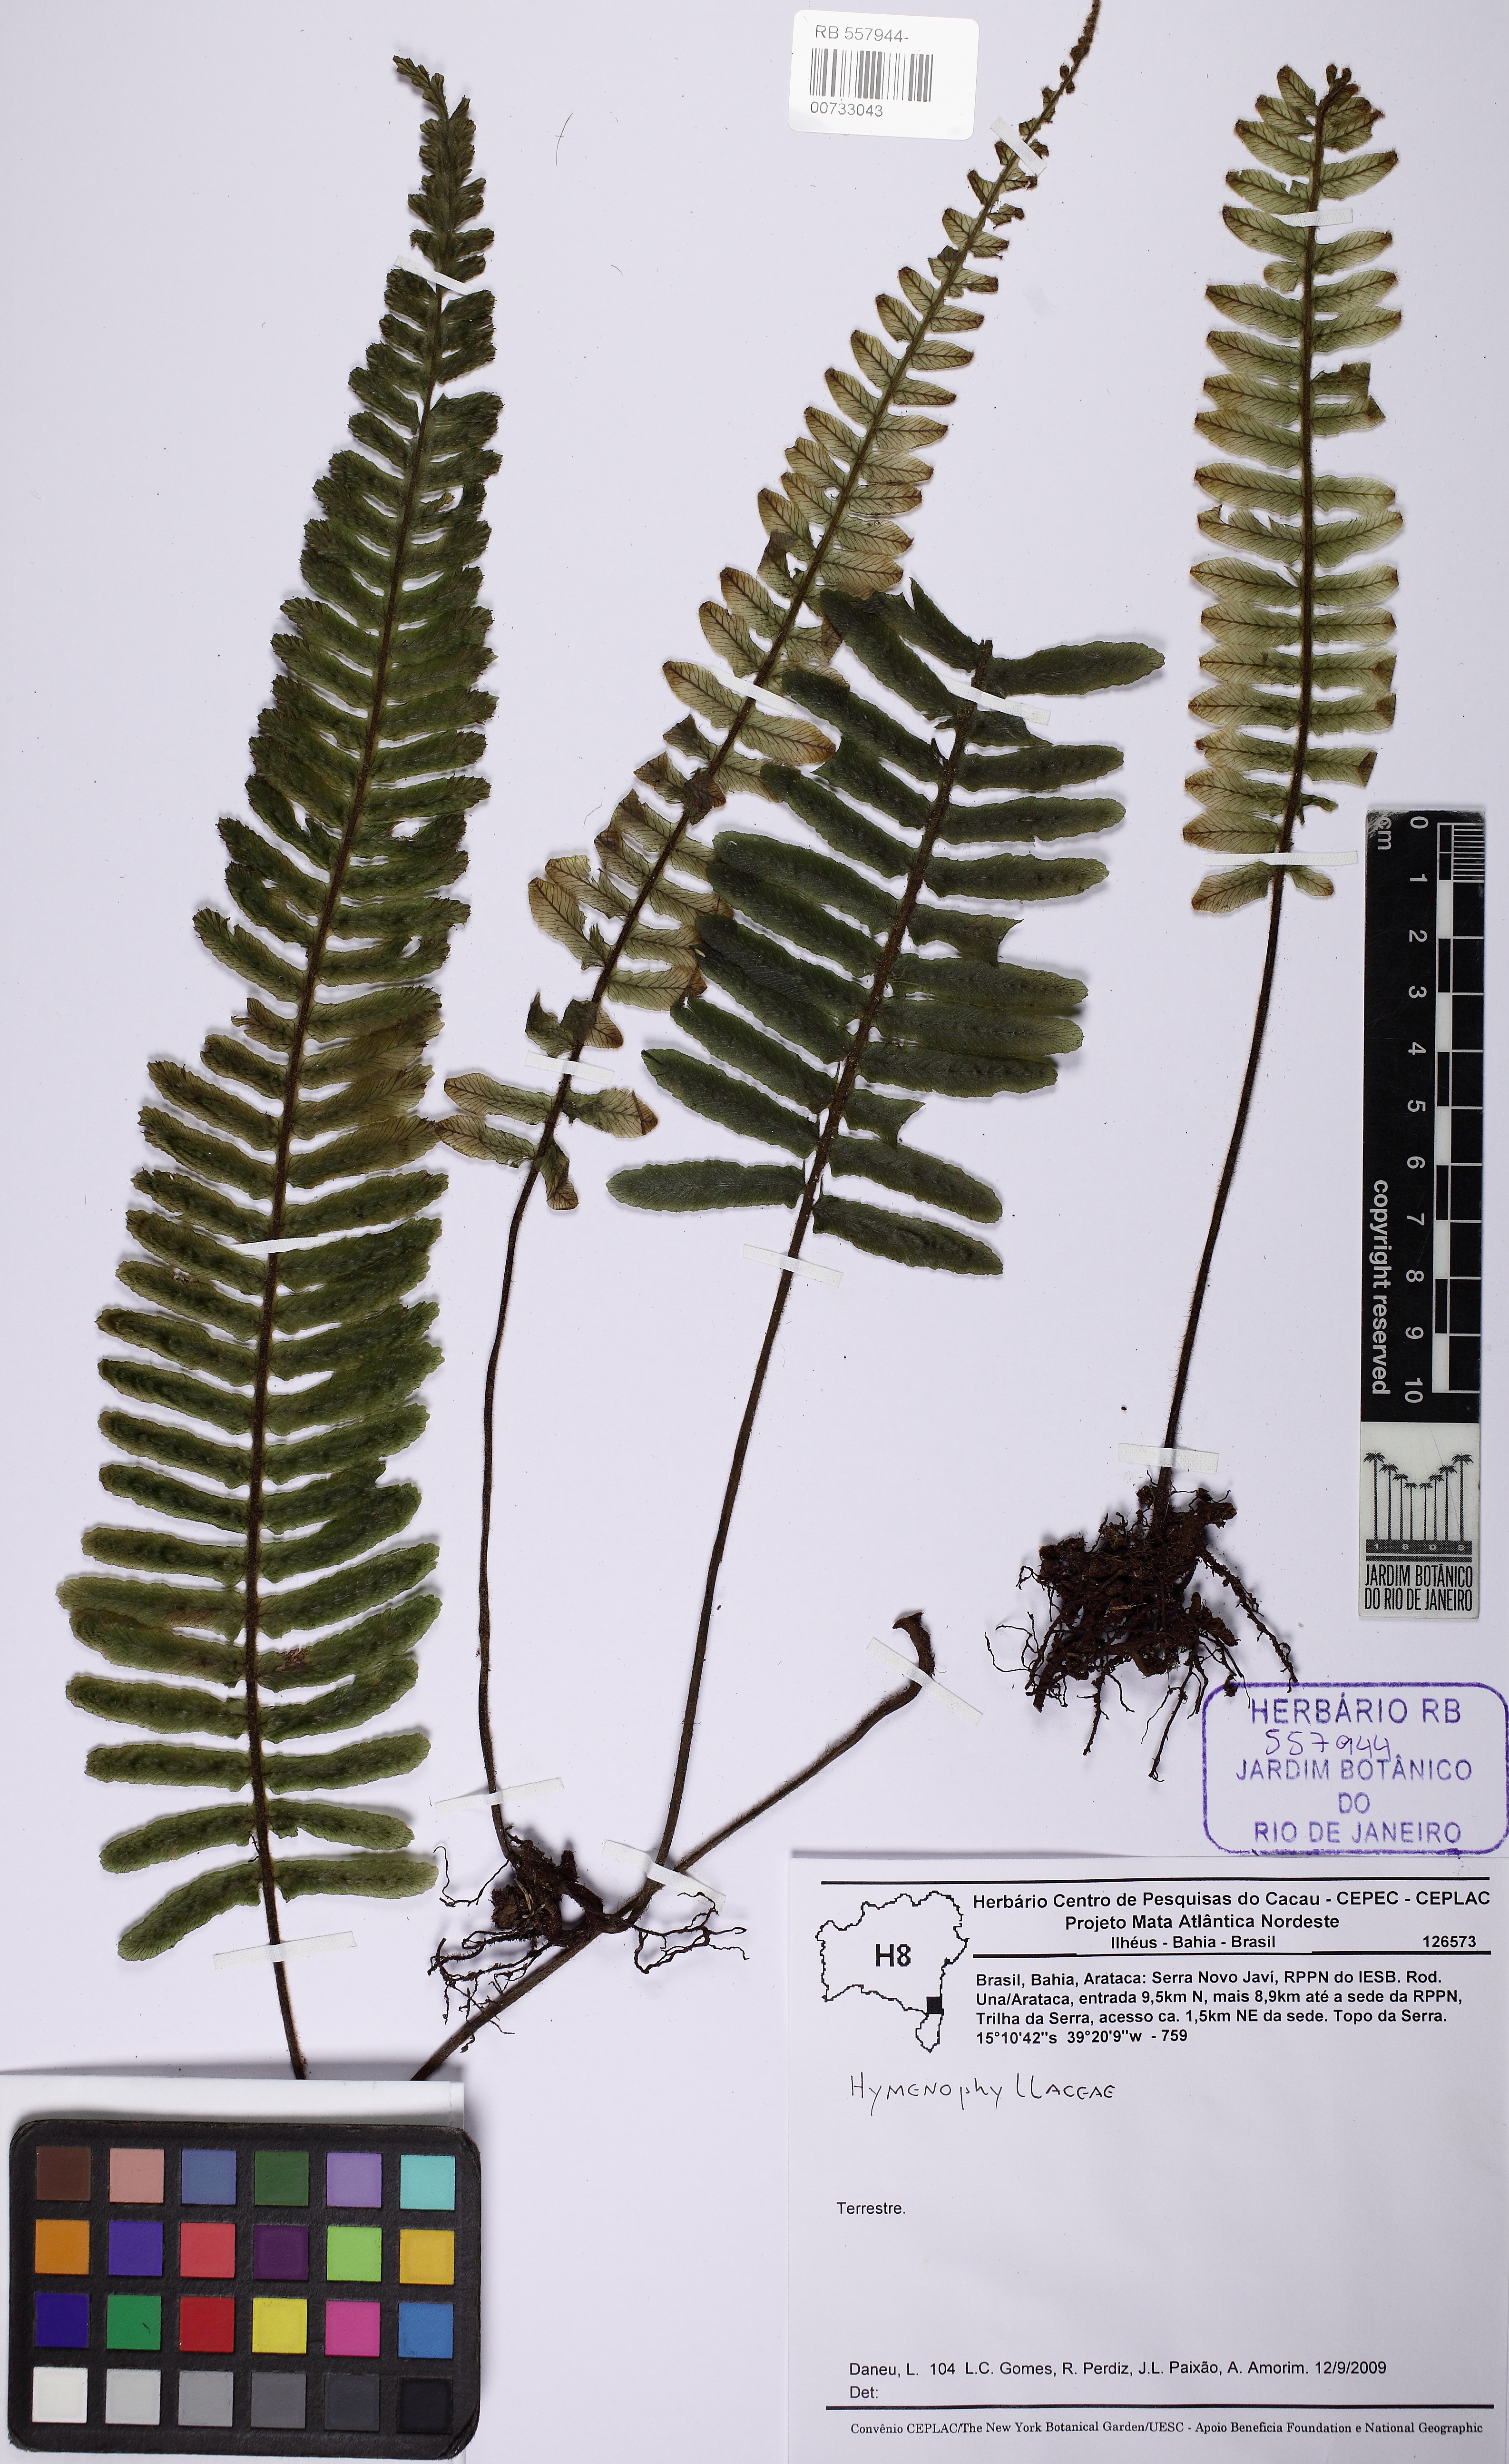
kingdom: Plantae
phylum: Tracheophyta
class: Polypodiopsida
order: Hymenophyllales
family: Hymenophyllaceae
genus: Trichomanes
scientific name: Trichomanes cristatum
